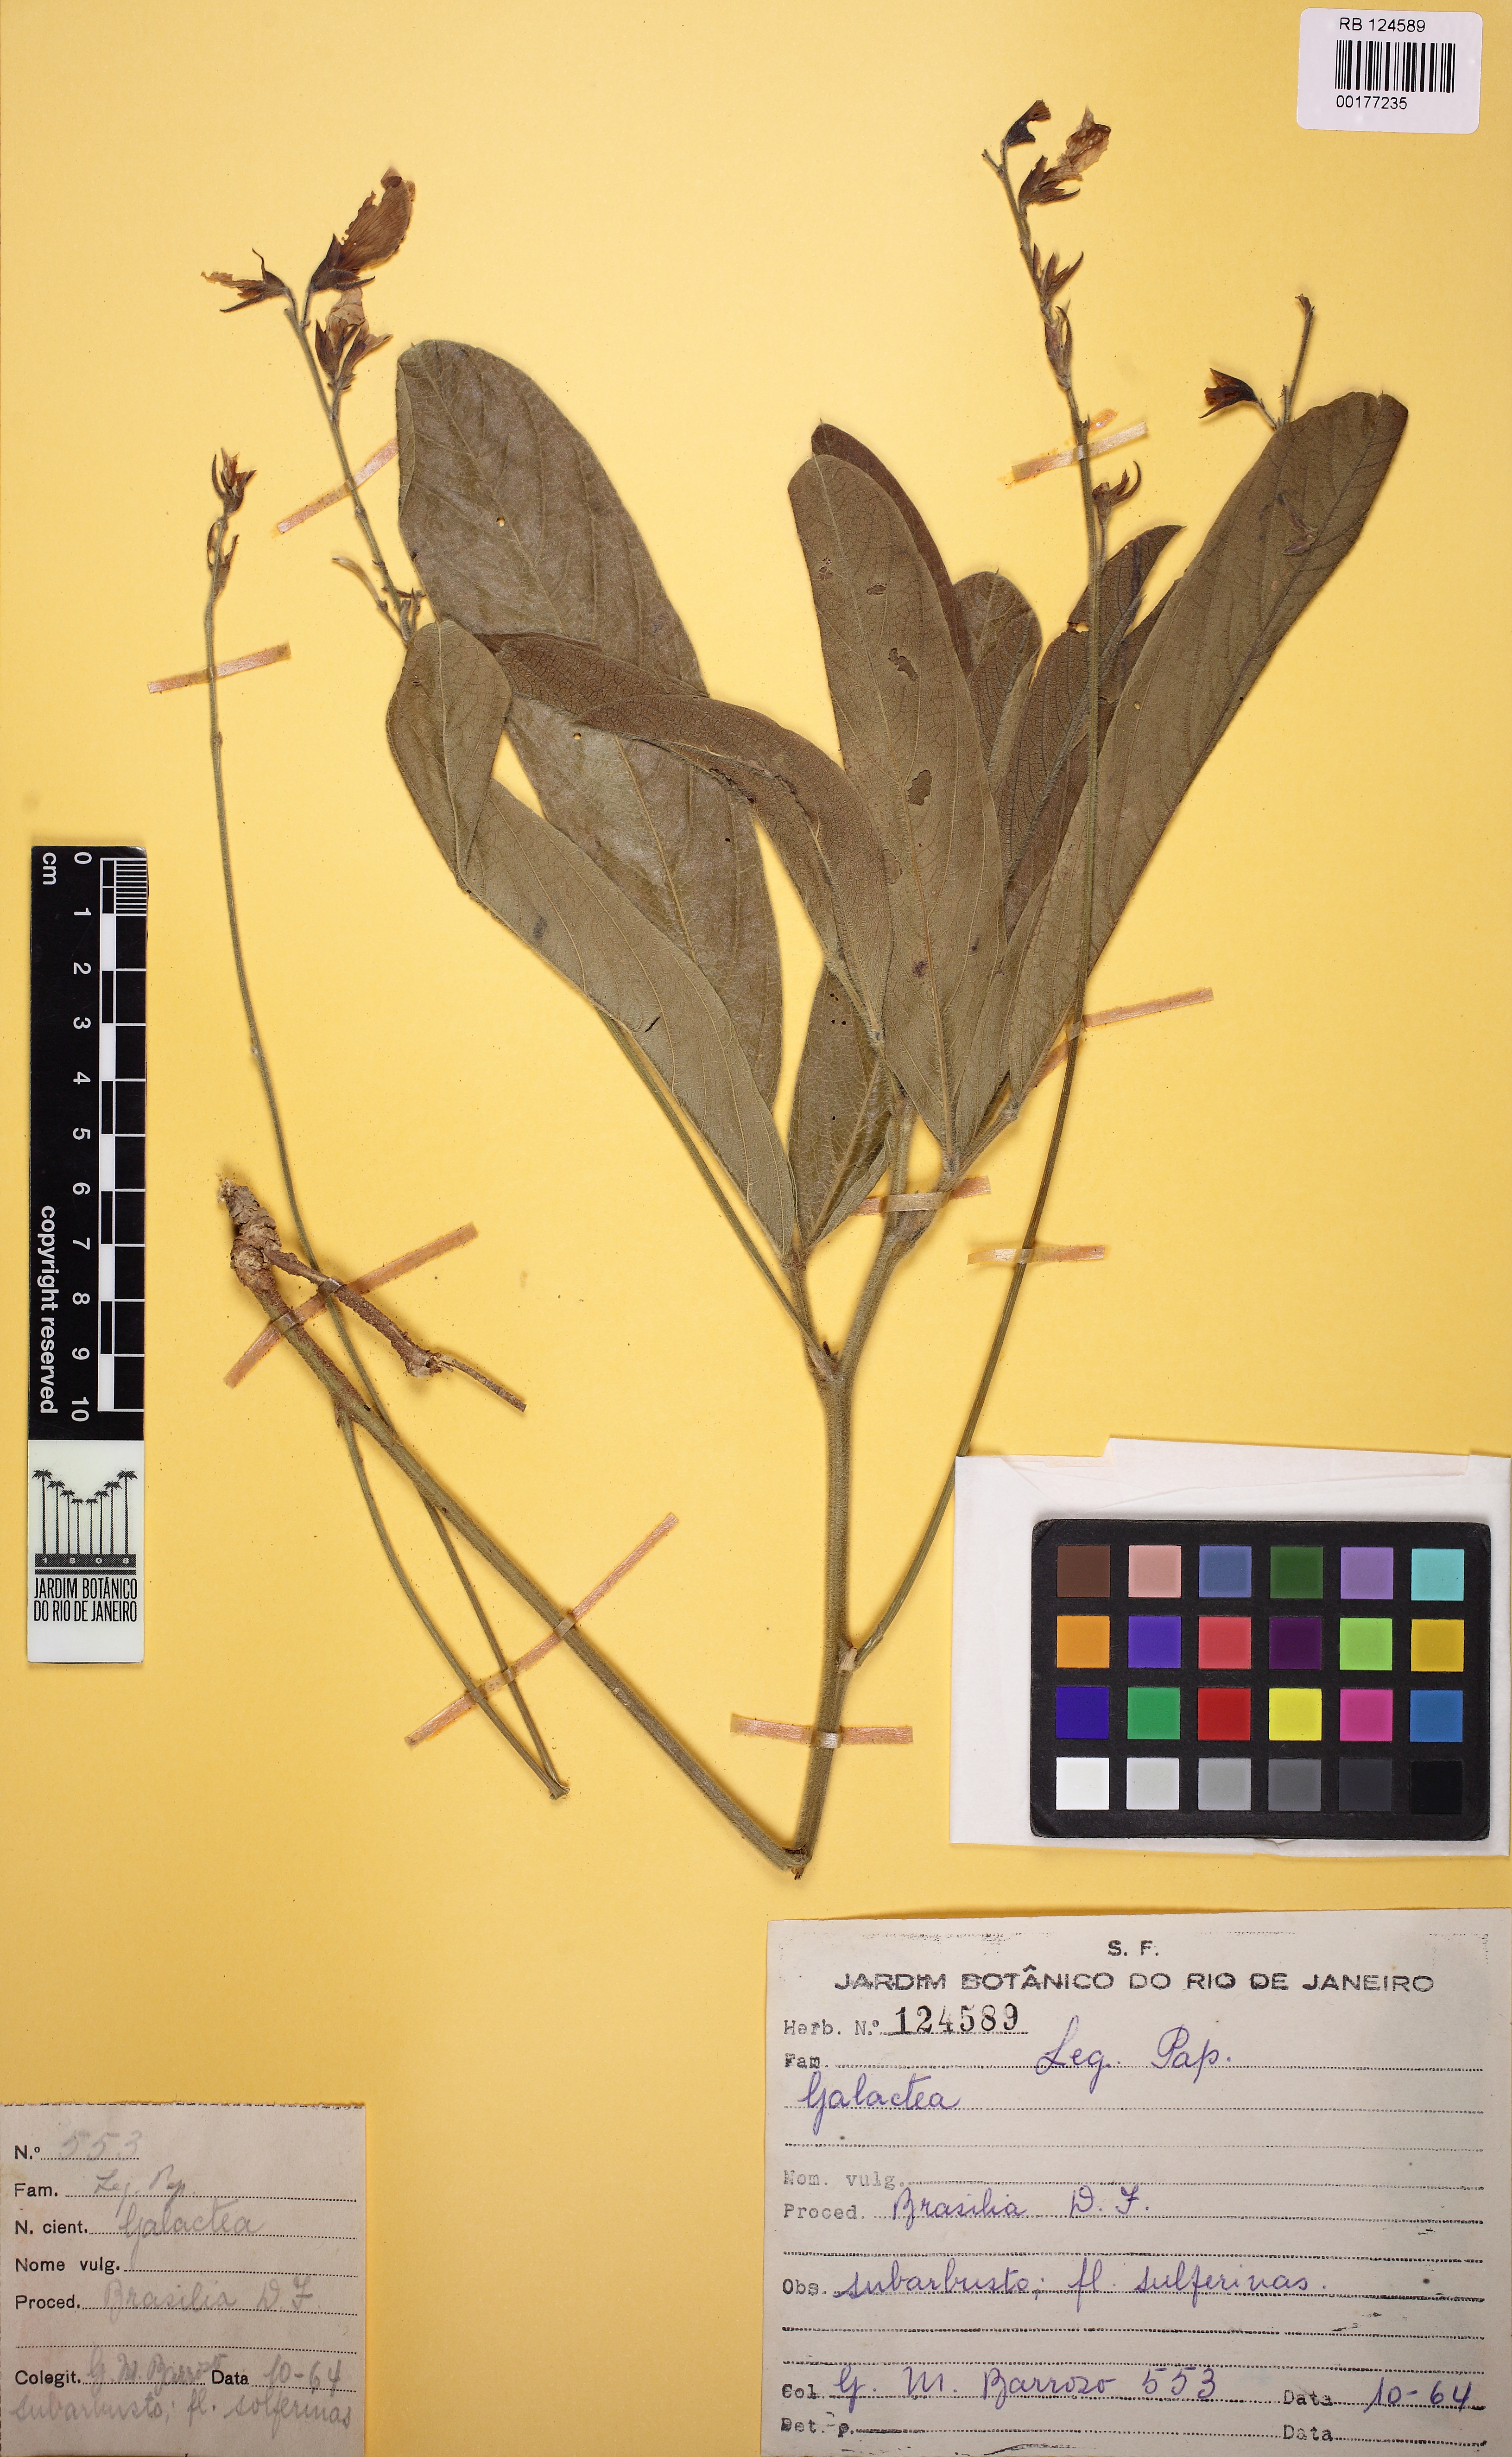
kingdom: Plantae
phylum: Tracheophyta
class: Magnoliopsida
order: Fabales
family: Fabaceae
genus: Cerradicola
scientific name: Cerradicola peduncularis
